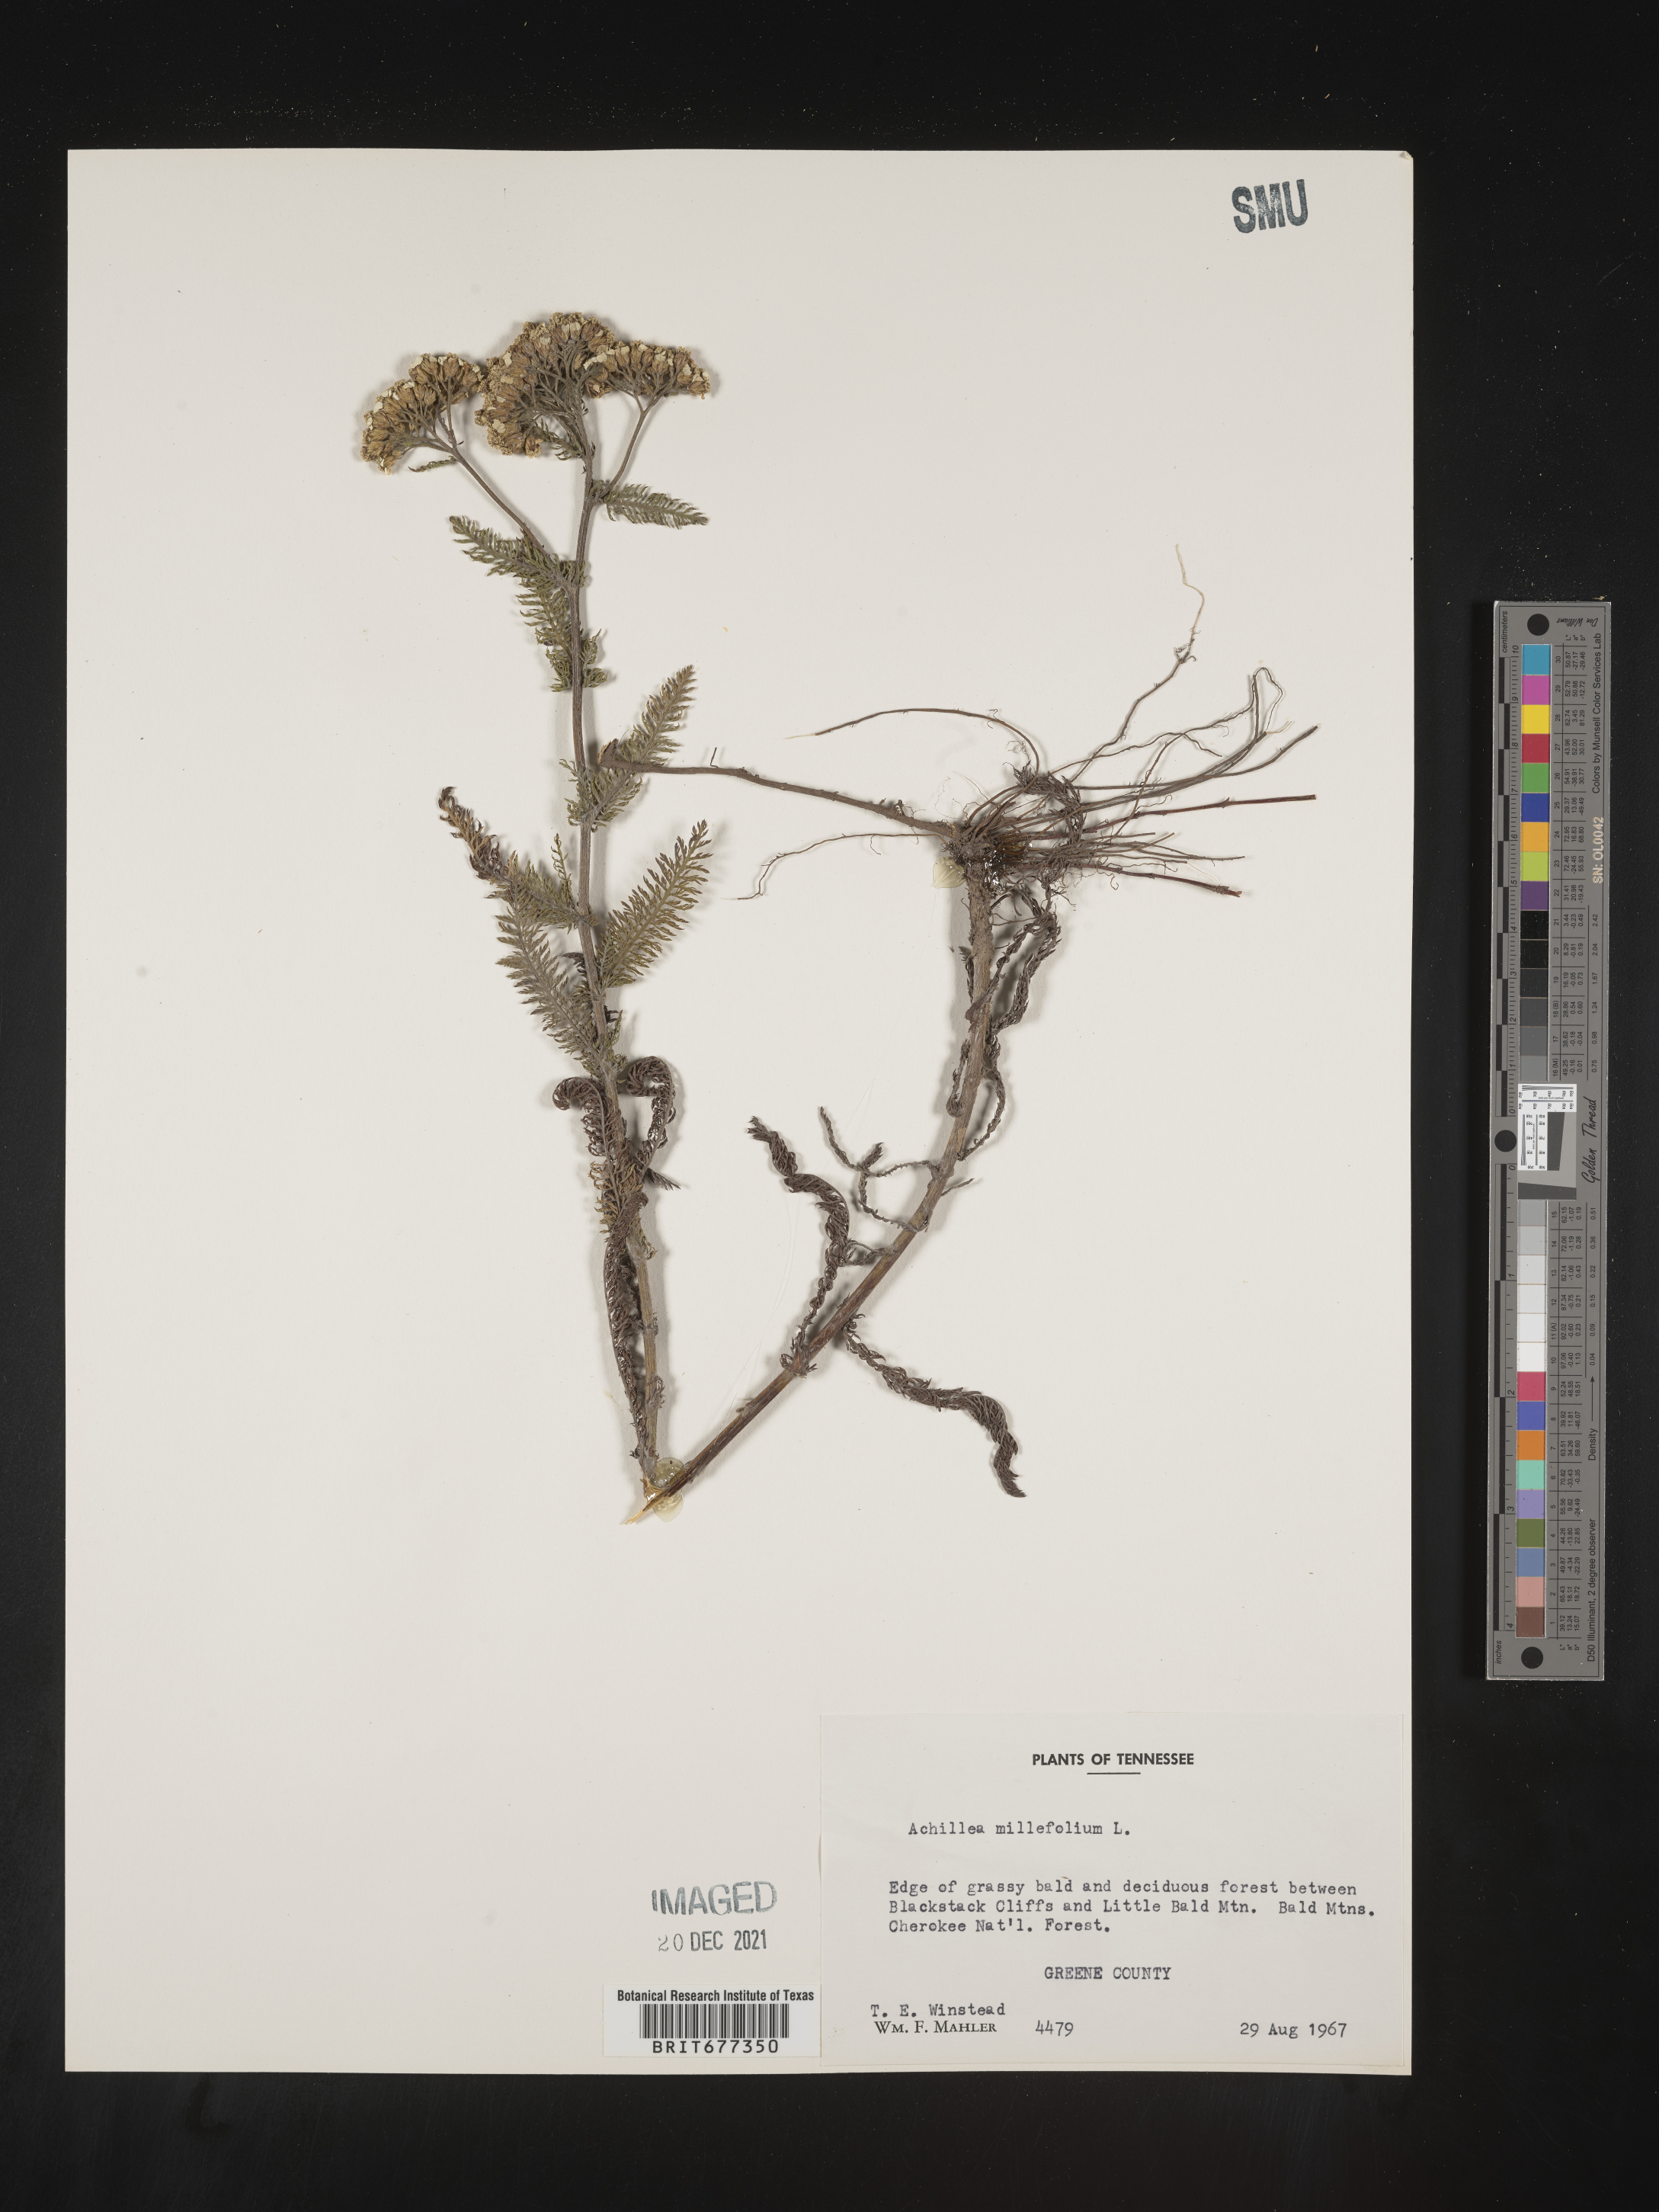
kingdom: Plantae
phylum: Tracheophyta
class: Magnoliopsida
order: Asterales
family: Asteraceae
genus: Achillea
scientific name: Achillea millefolium
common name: Yarrow
